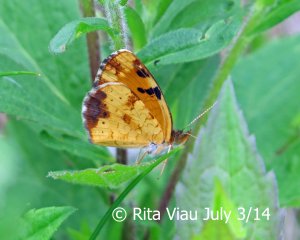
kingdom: Animalia
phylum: Arthropoda
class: Insecta
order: Lepidoptera
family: Nymphalidae
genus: Phyciodes
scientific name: Phyciodes tharos
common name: Northern Crescent
